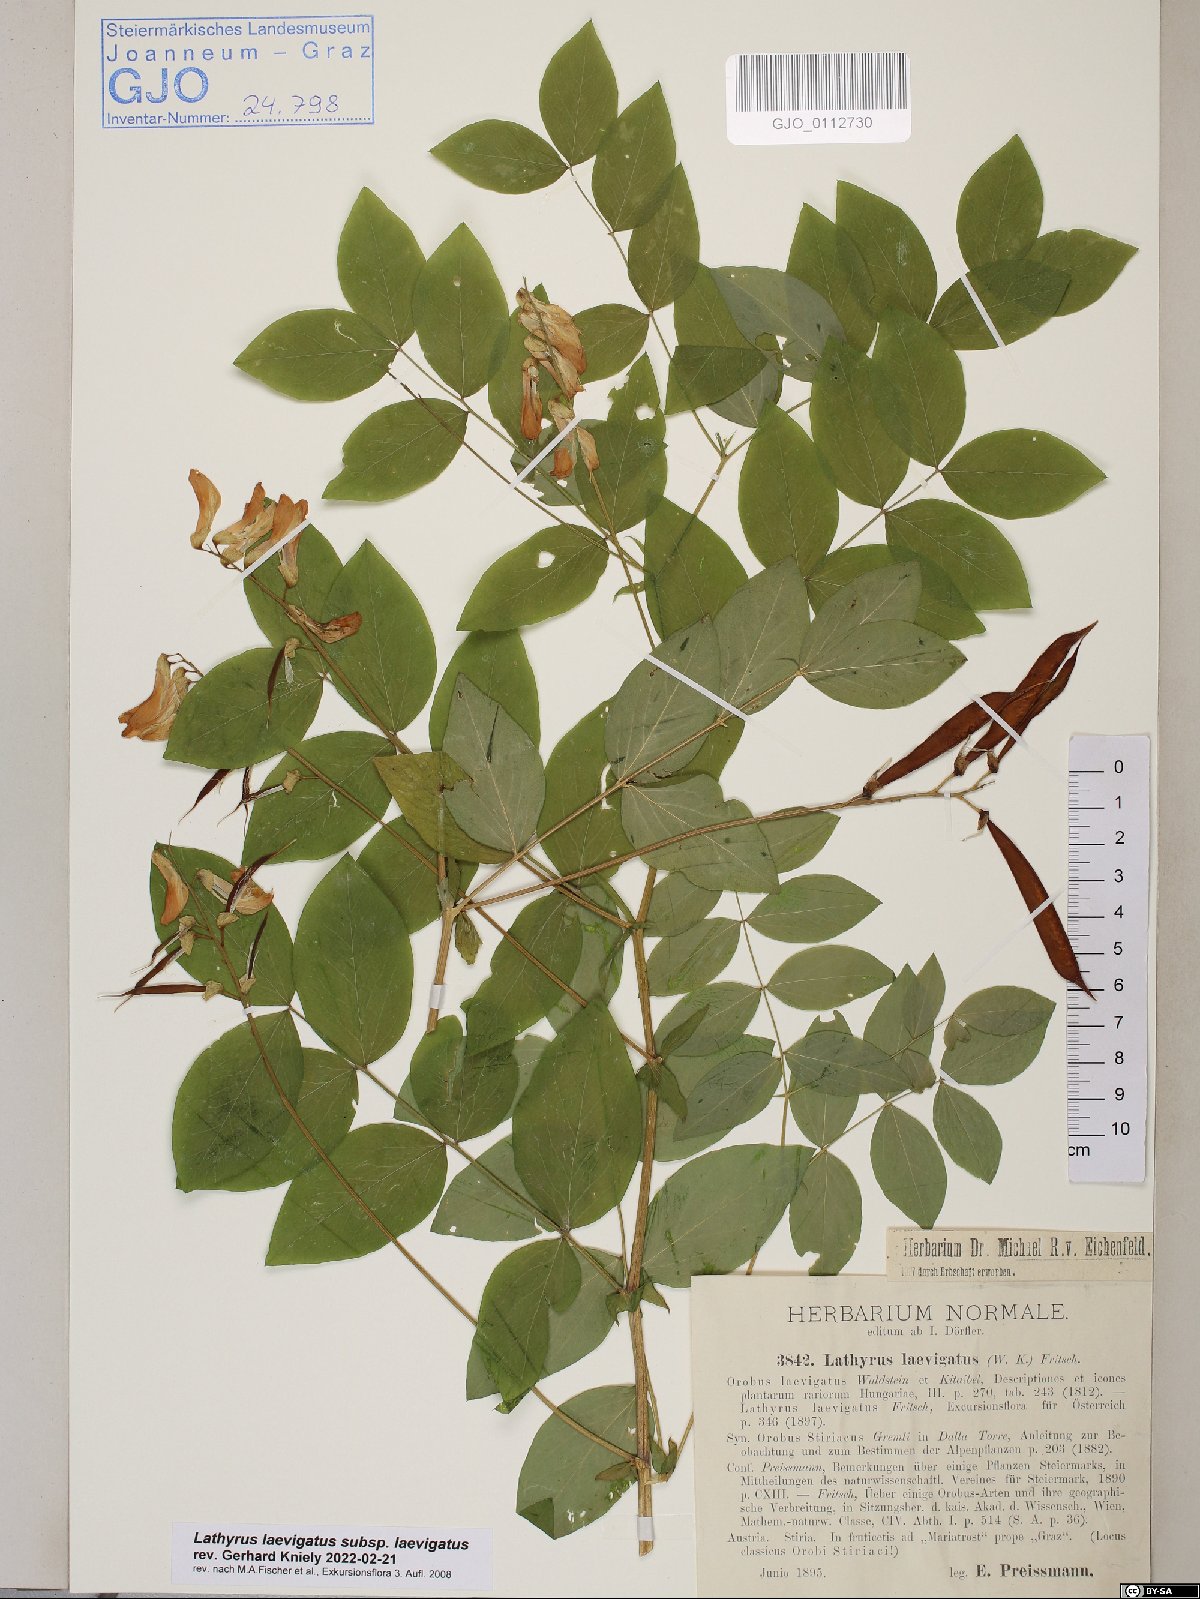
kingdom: Plantae
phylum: Tracheophyta
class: Magnoliopsida
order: Fabales
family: Fabaceae
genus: Lathyrus
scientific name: Lathyrus laevigatus
